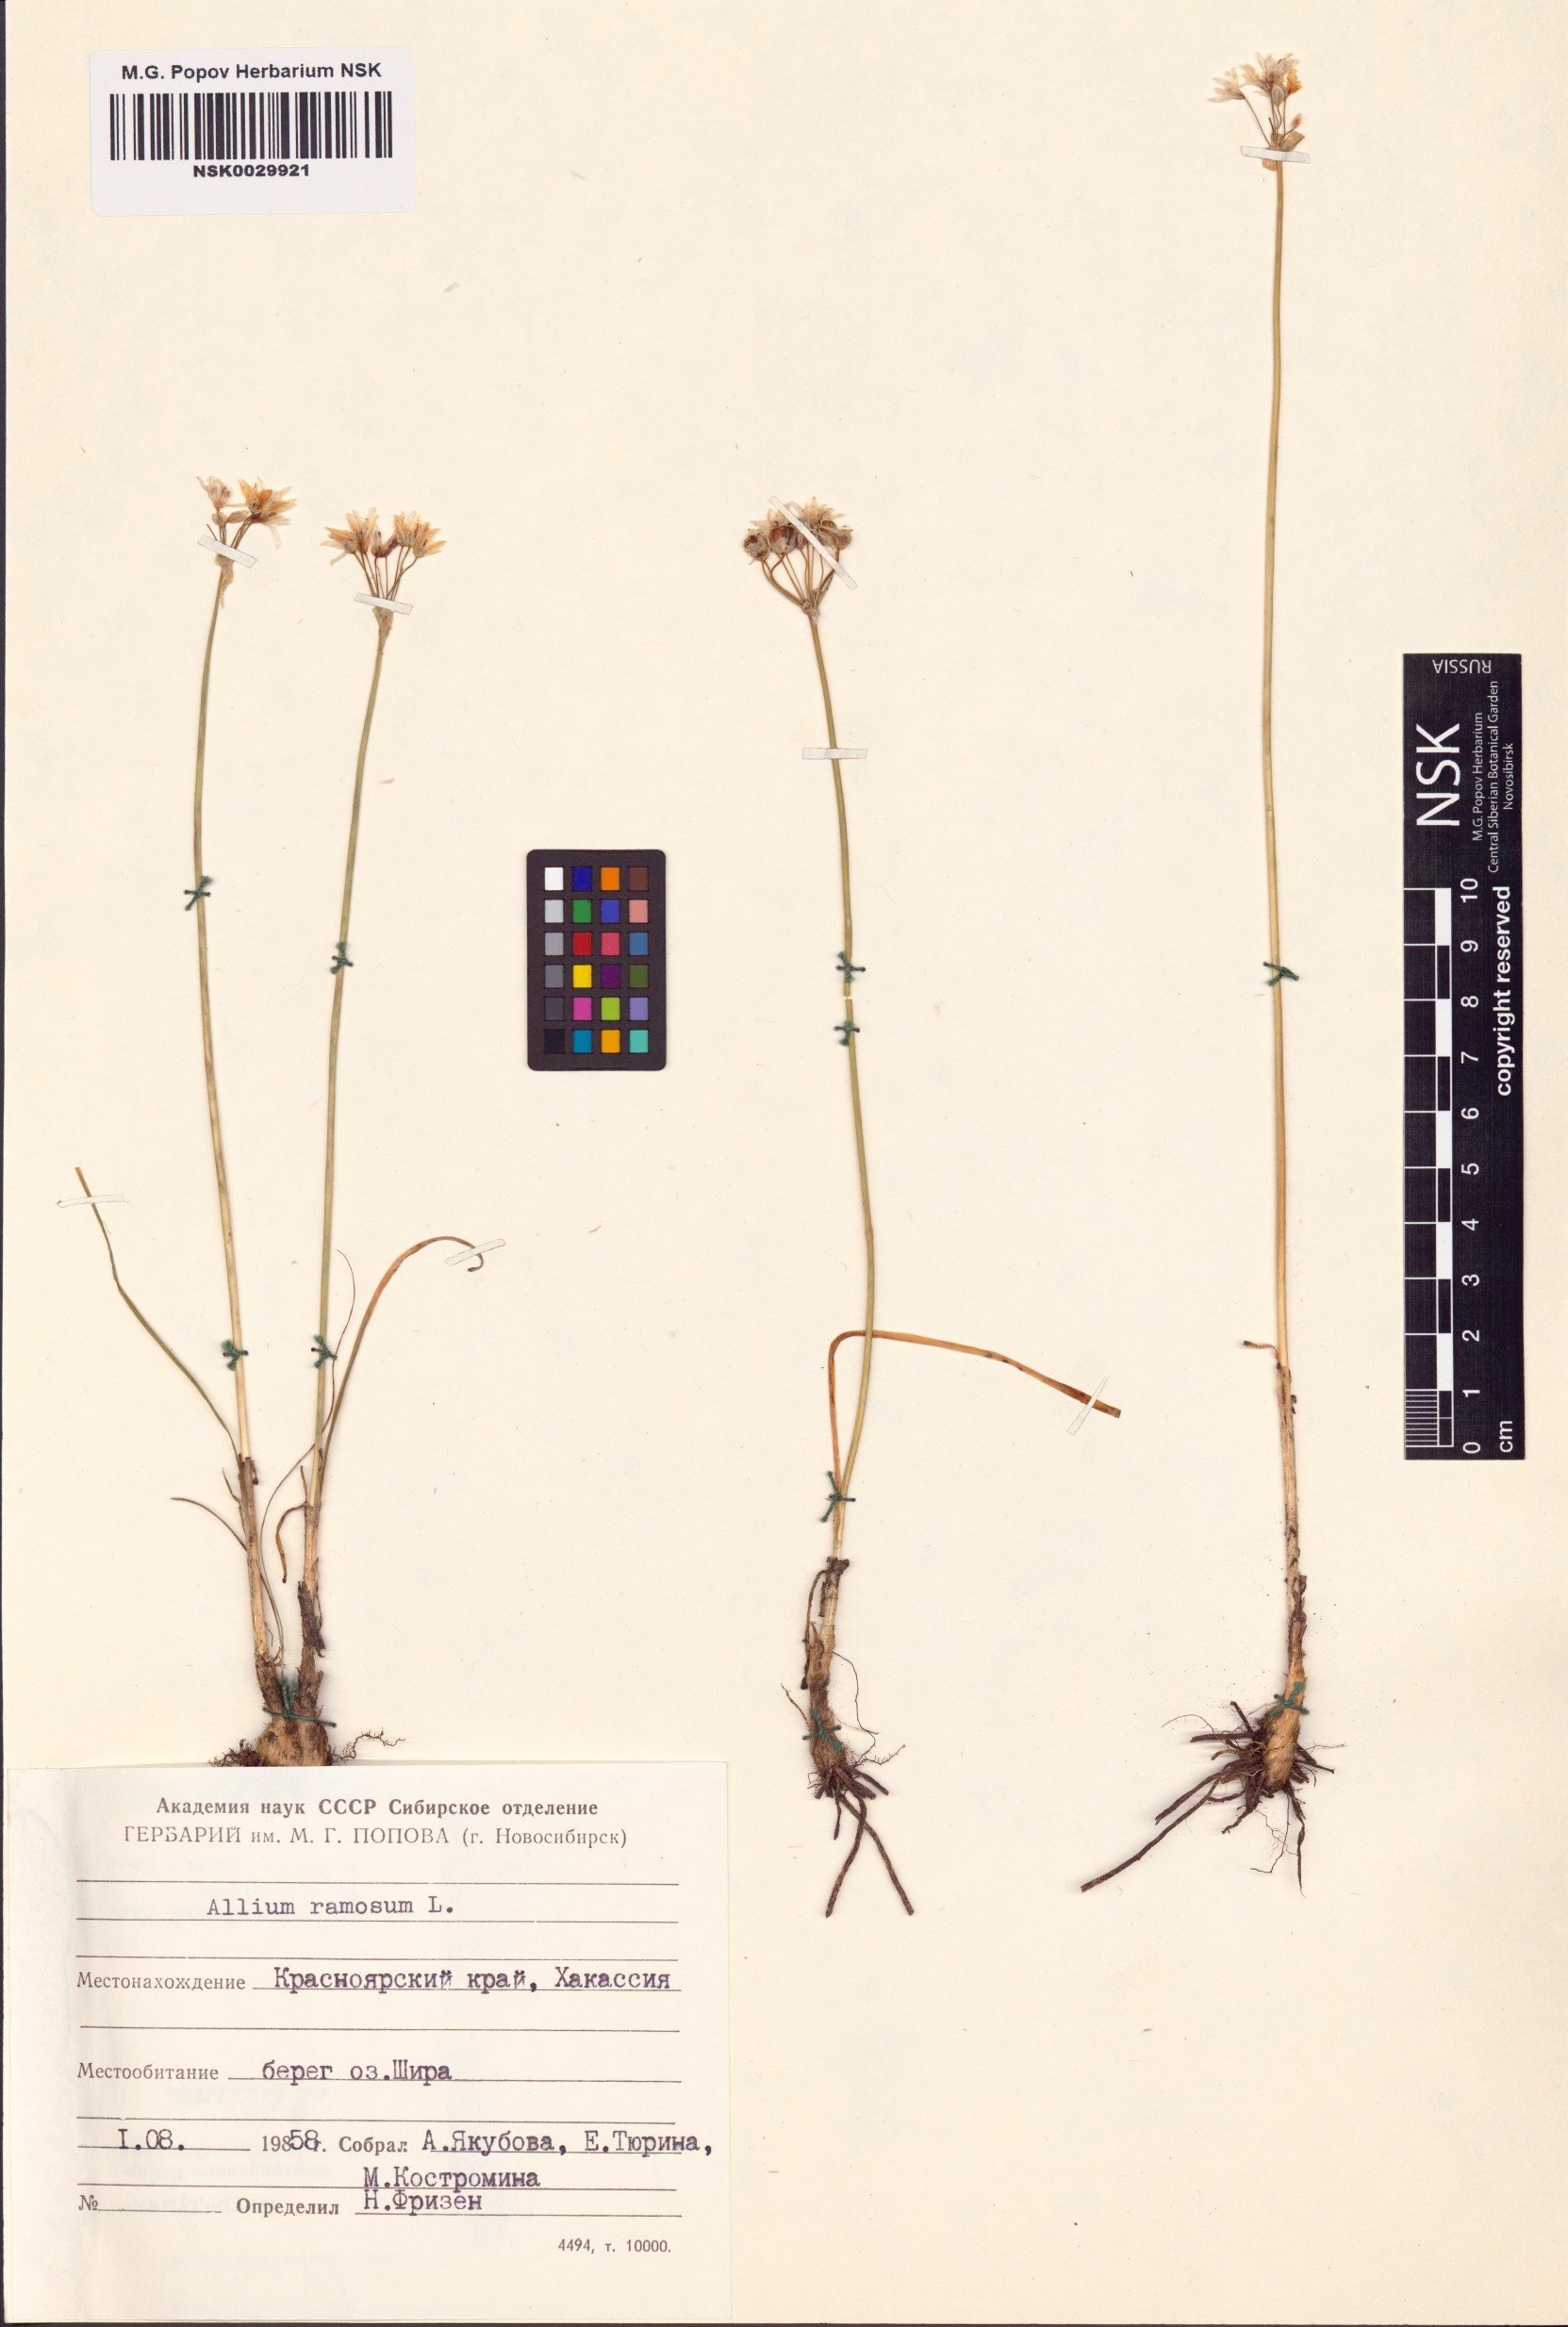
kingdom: Plantae
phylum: Tracheophyta
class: Liliopsida
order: Asparagales
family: Amaryllidaceae
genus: Allium
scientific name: Allium ramosum
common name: Fragrant garlic
